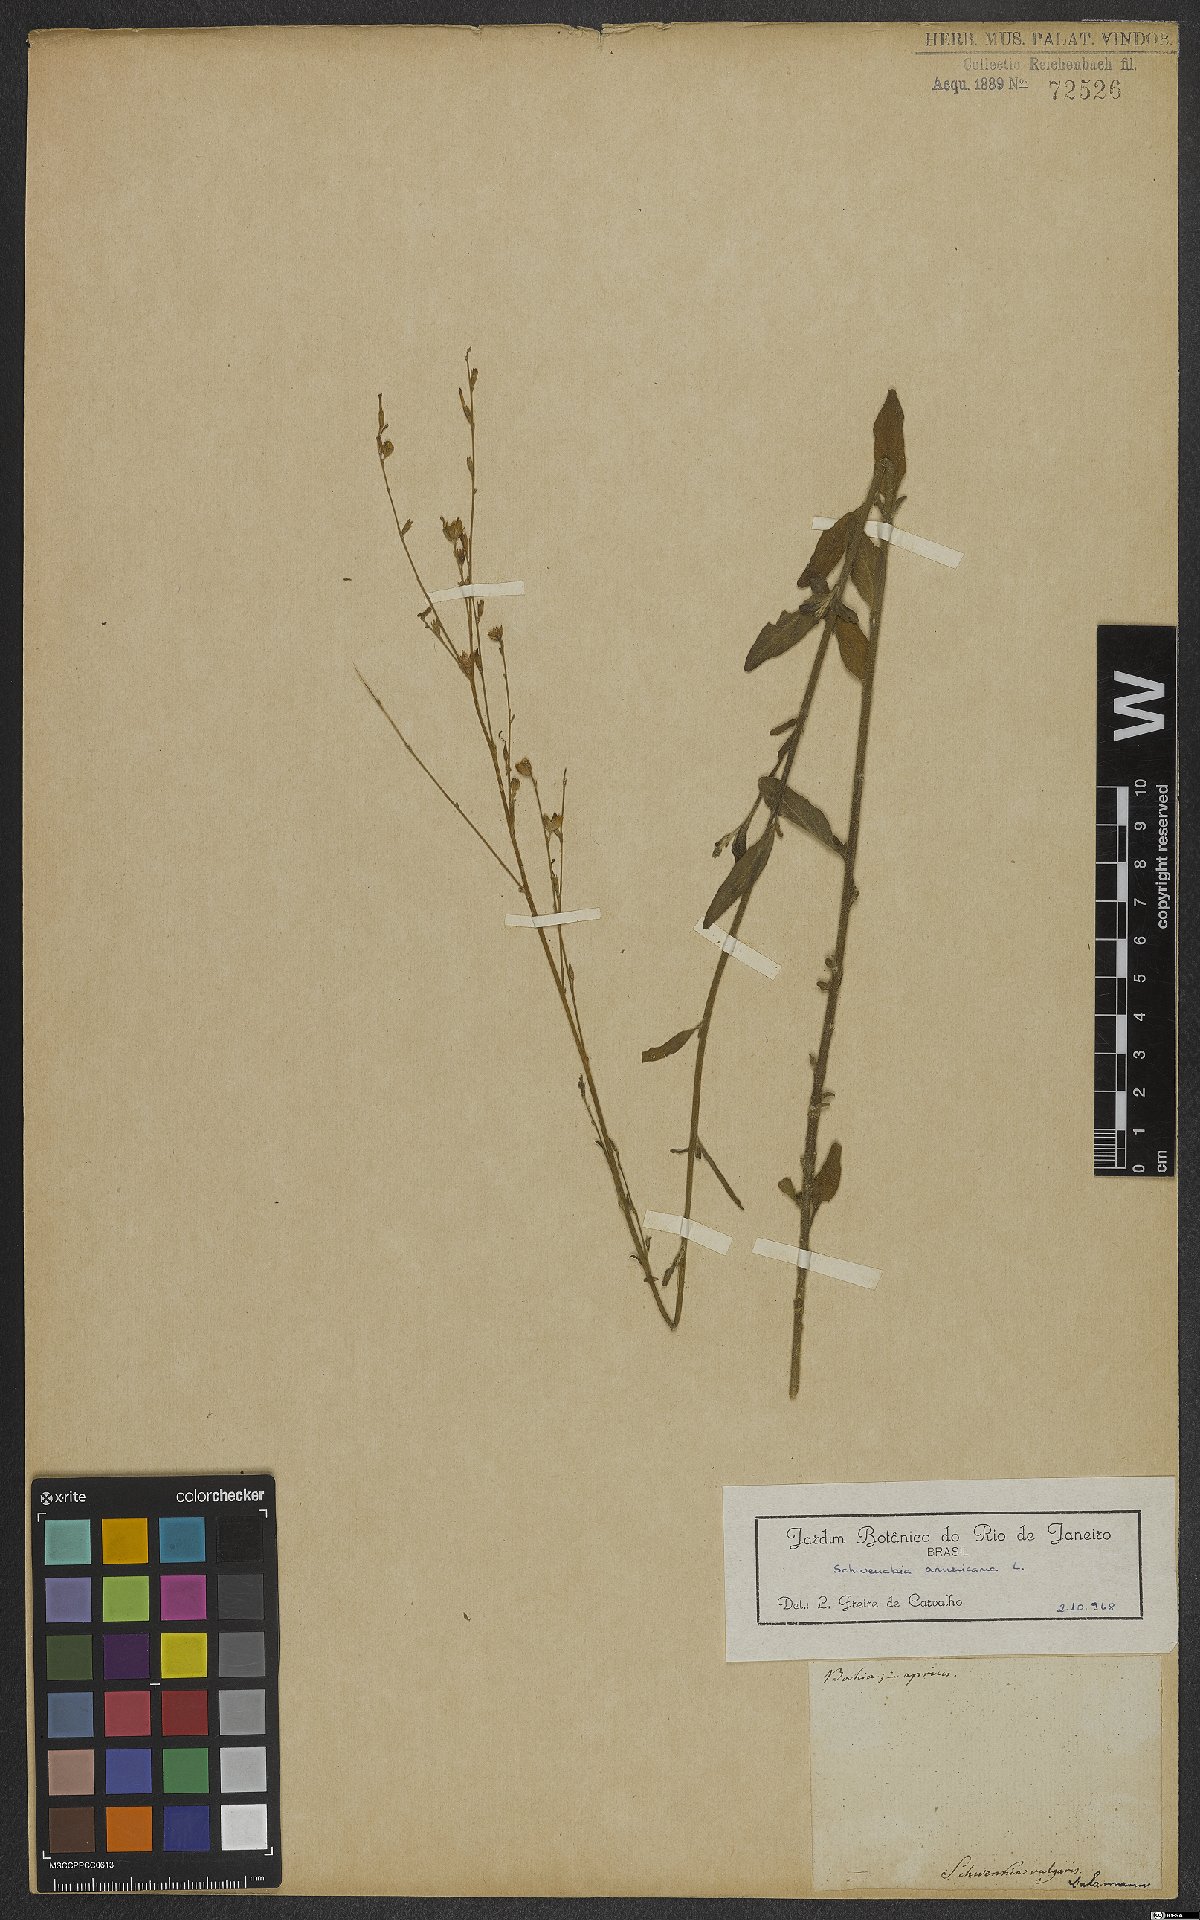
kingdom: Plantae
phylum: Tracheophyta
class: Magnoliopsida
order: Solanales
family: Solanaceae
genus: Schwenckia
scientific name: Schwenckia americana
